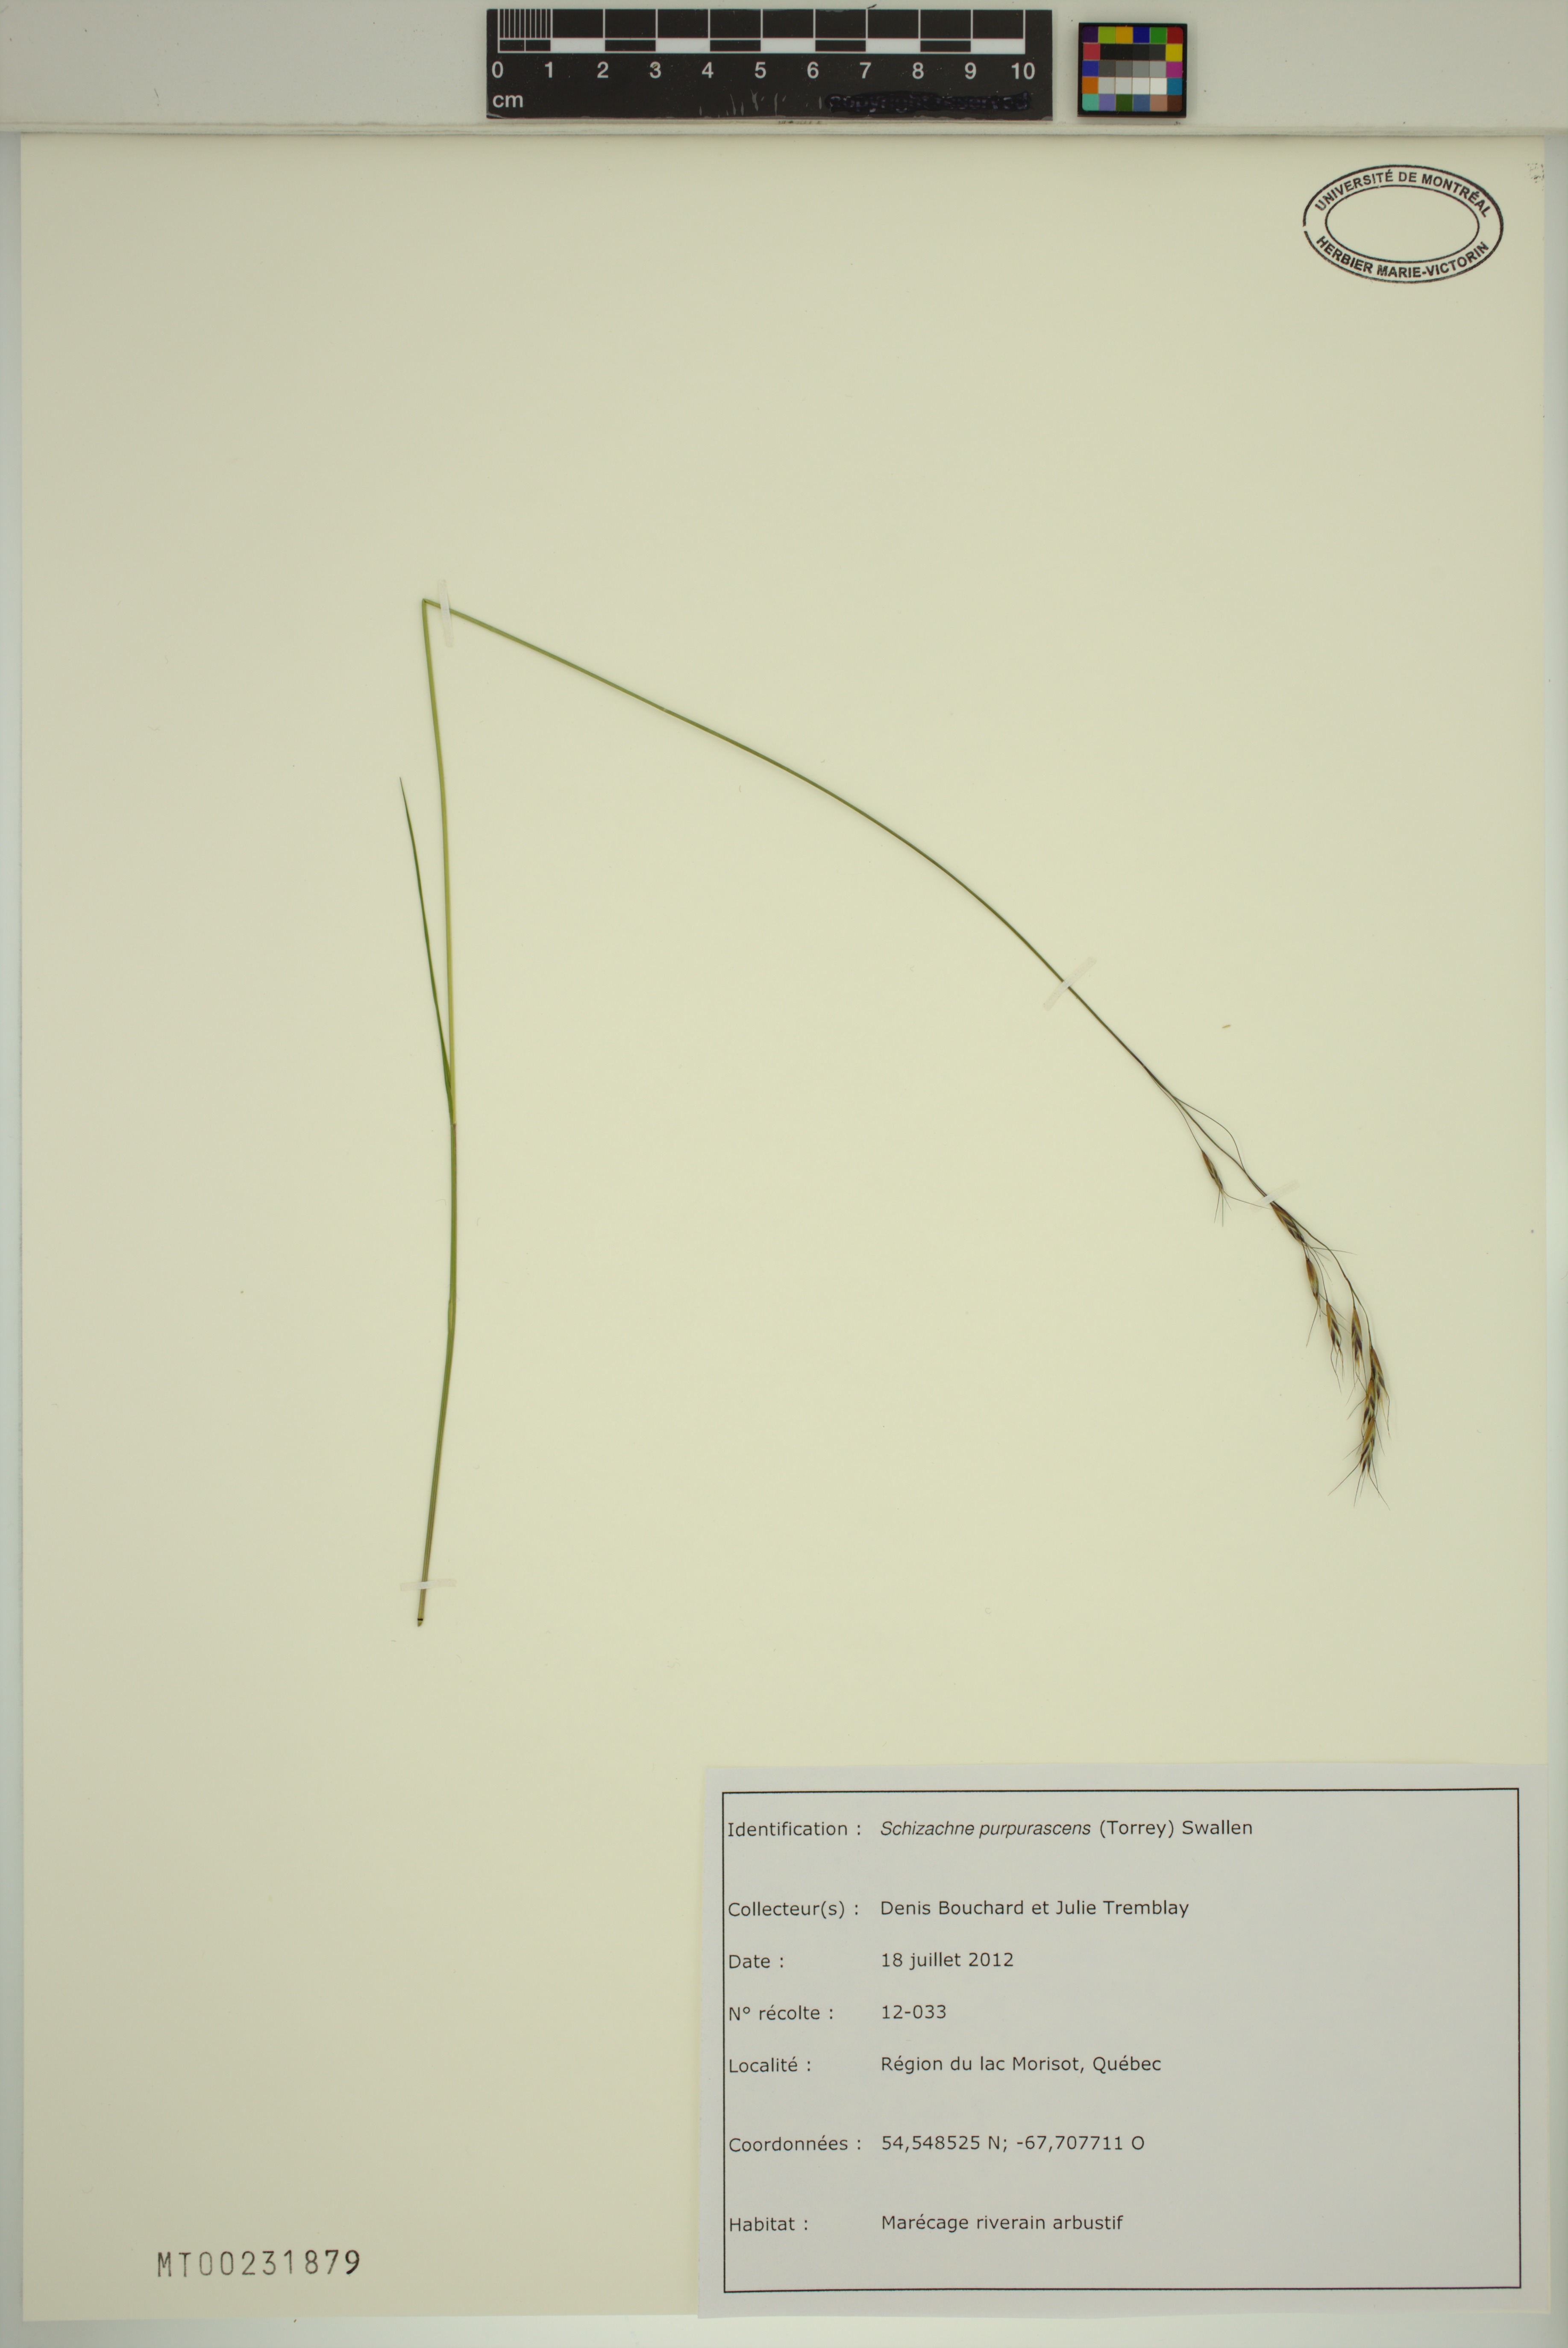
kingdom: Plantae
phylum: Tracheophyta
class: Liliopsida
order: Poales
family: Poaceae
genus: Schizachne
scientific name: Schizachne purpurascens
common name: False melic
